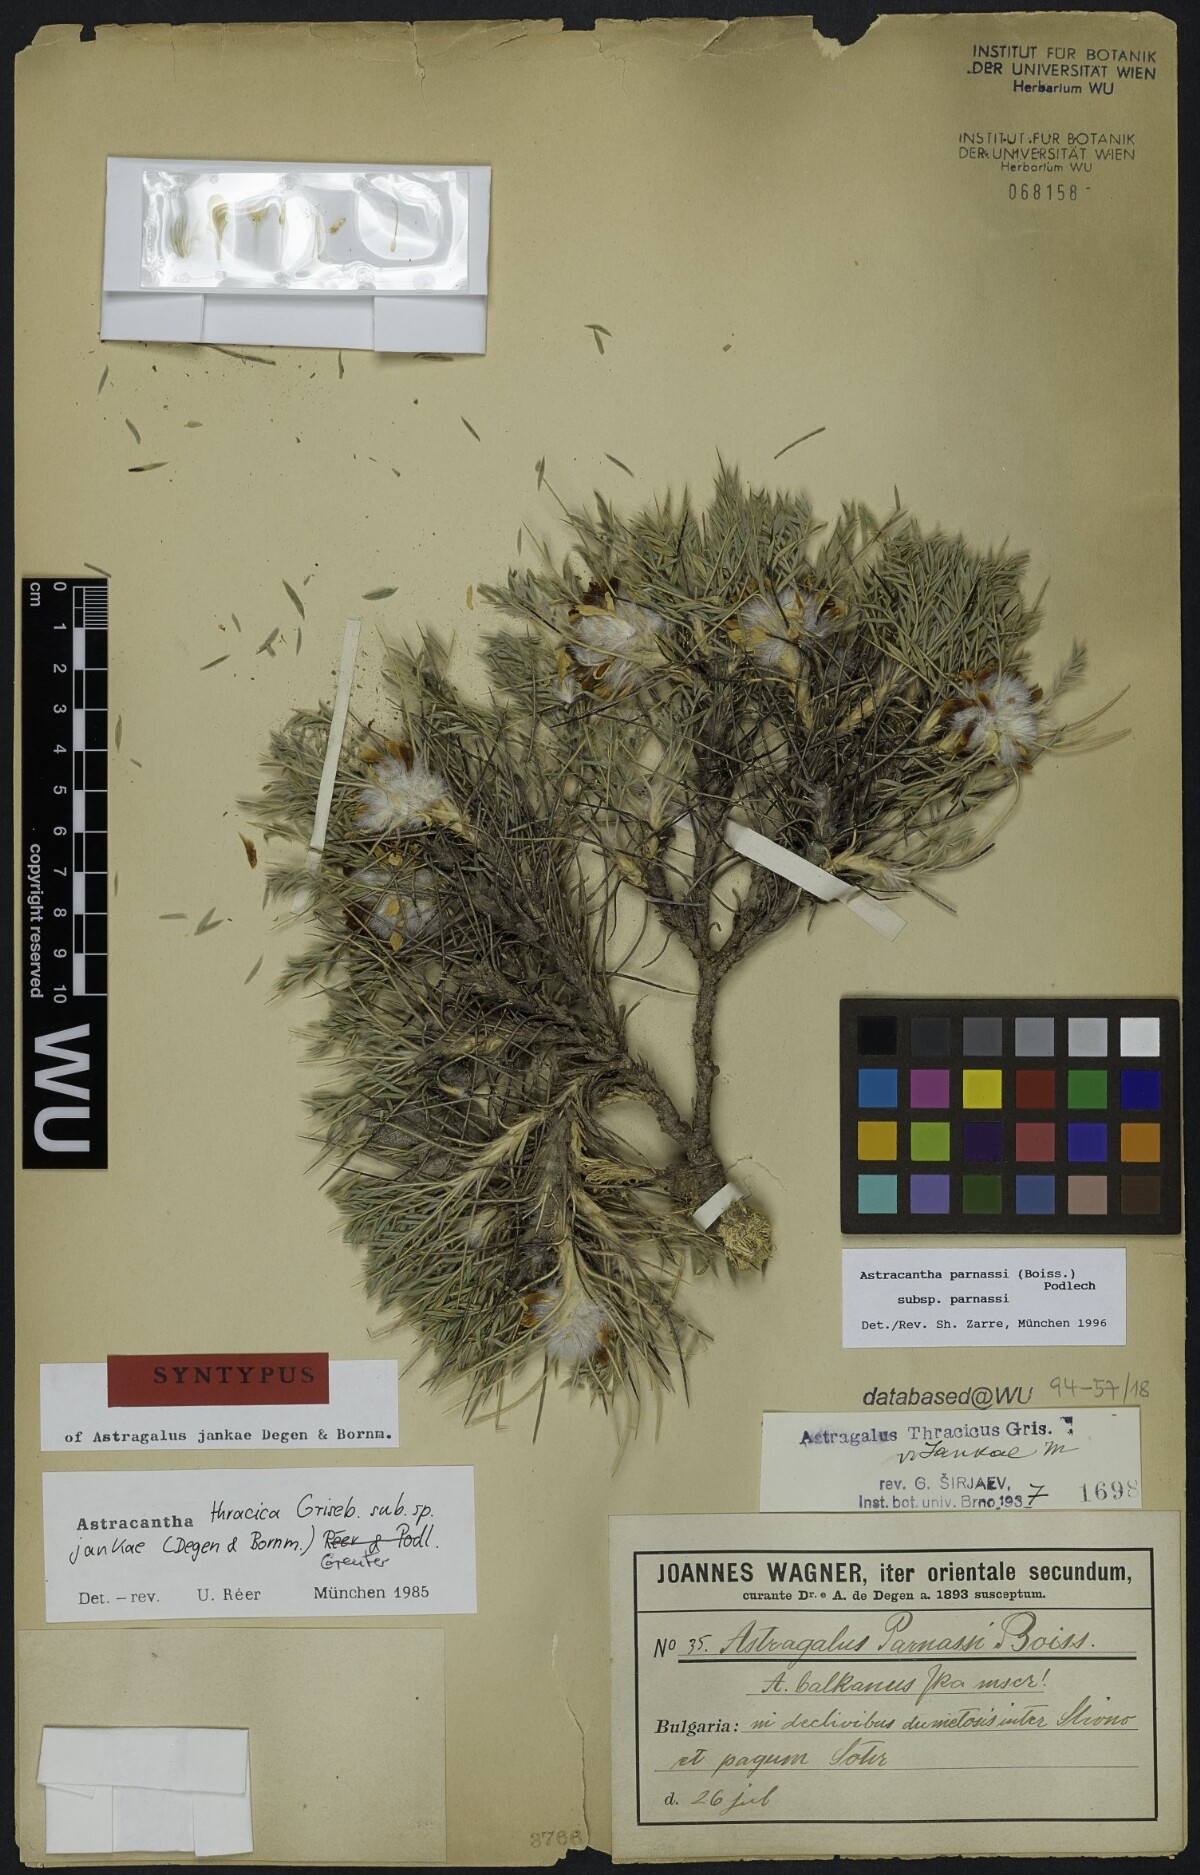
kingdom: Plantae
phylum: Tracheophyta
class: Magnoliopsida
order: Fabales
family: Fabaceae
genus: Astragalus
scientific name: Astragalus parnassi
